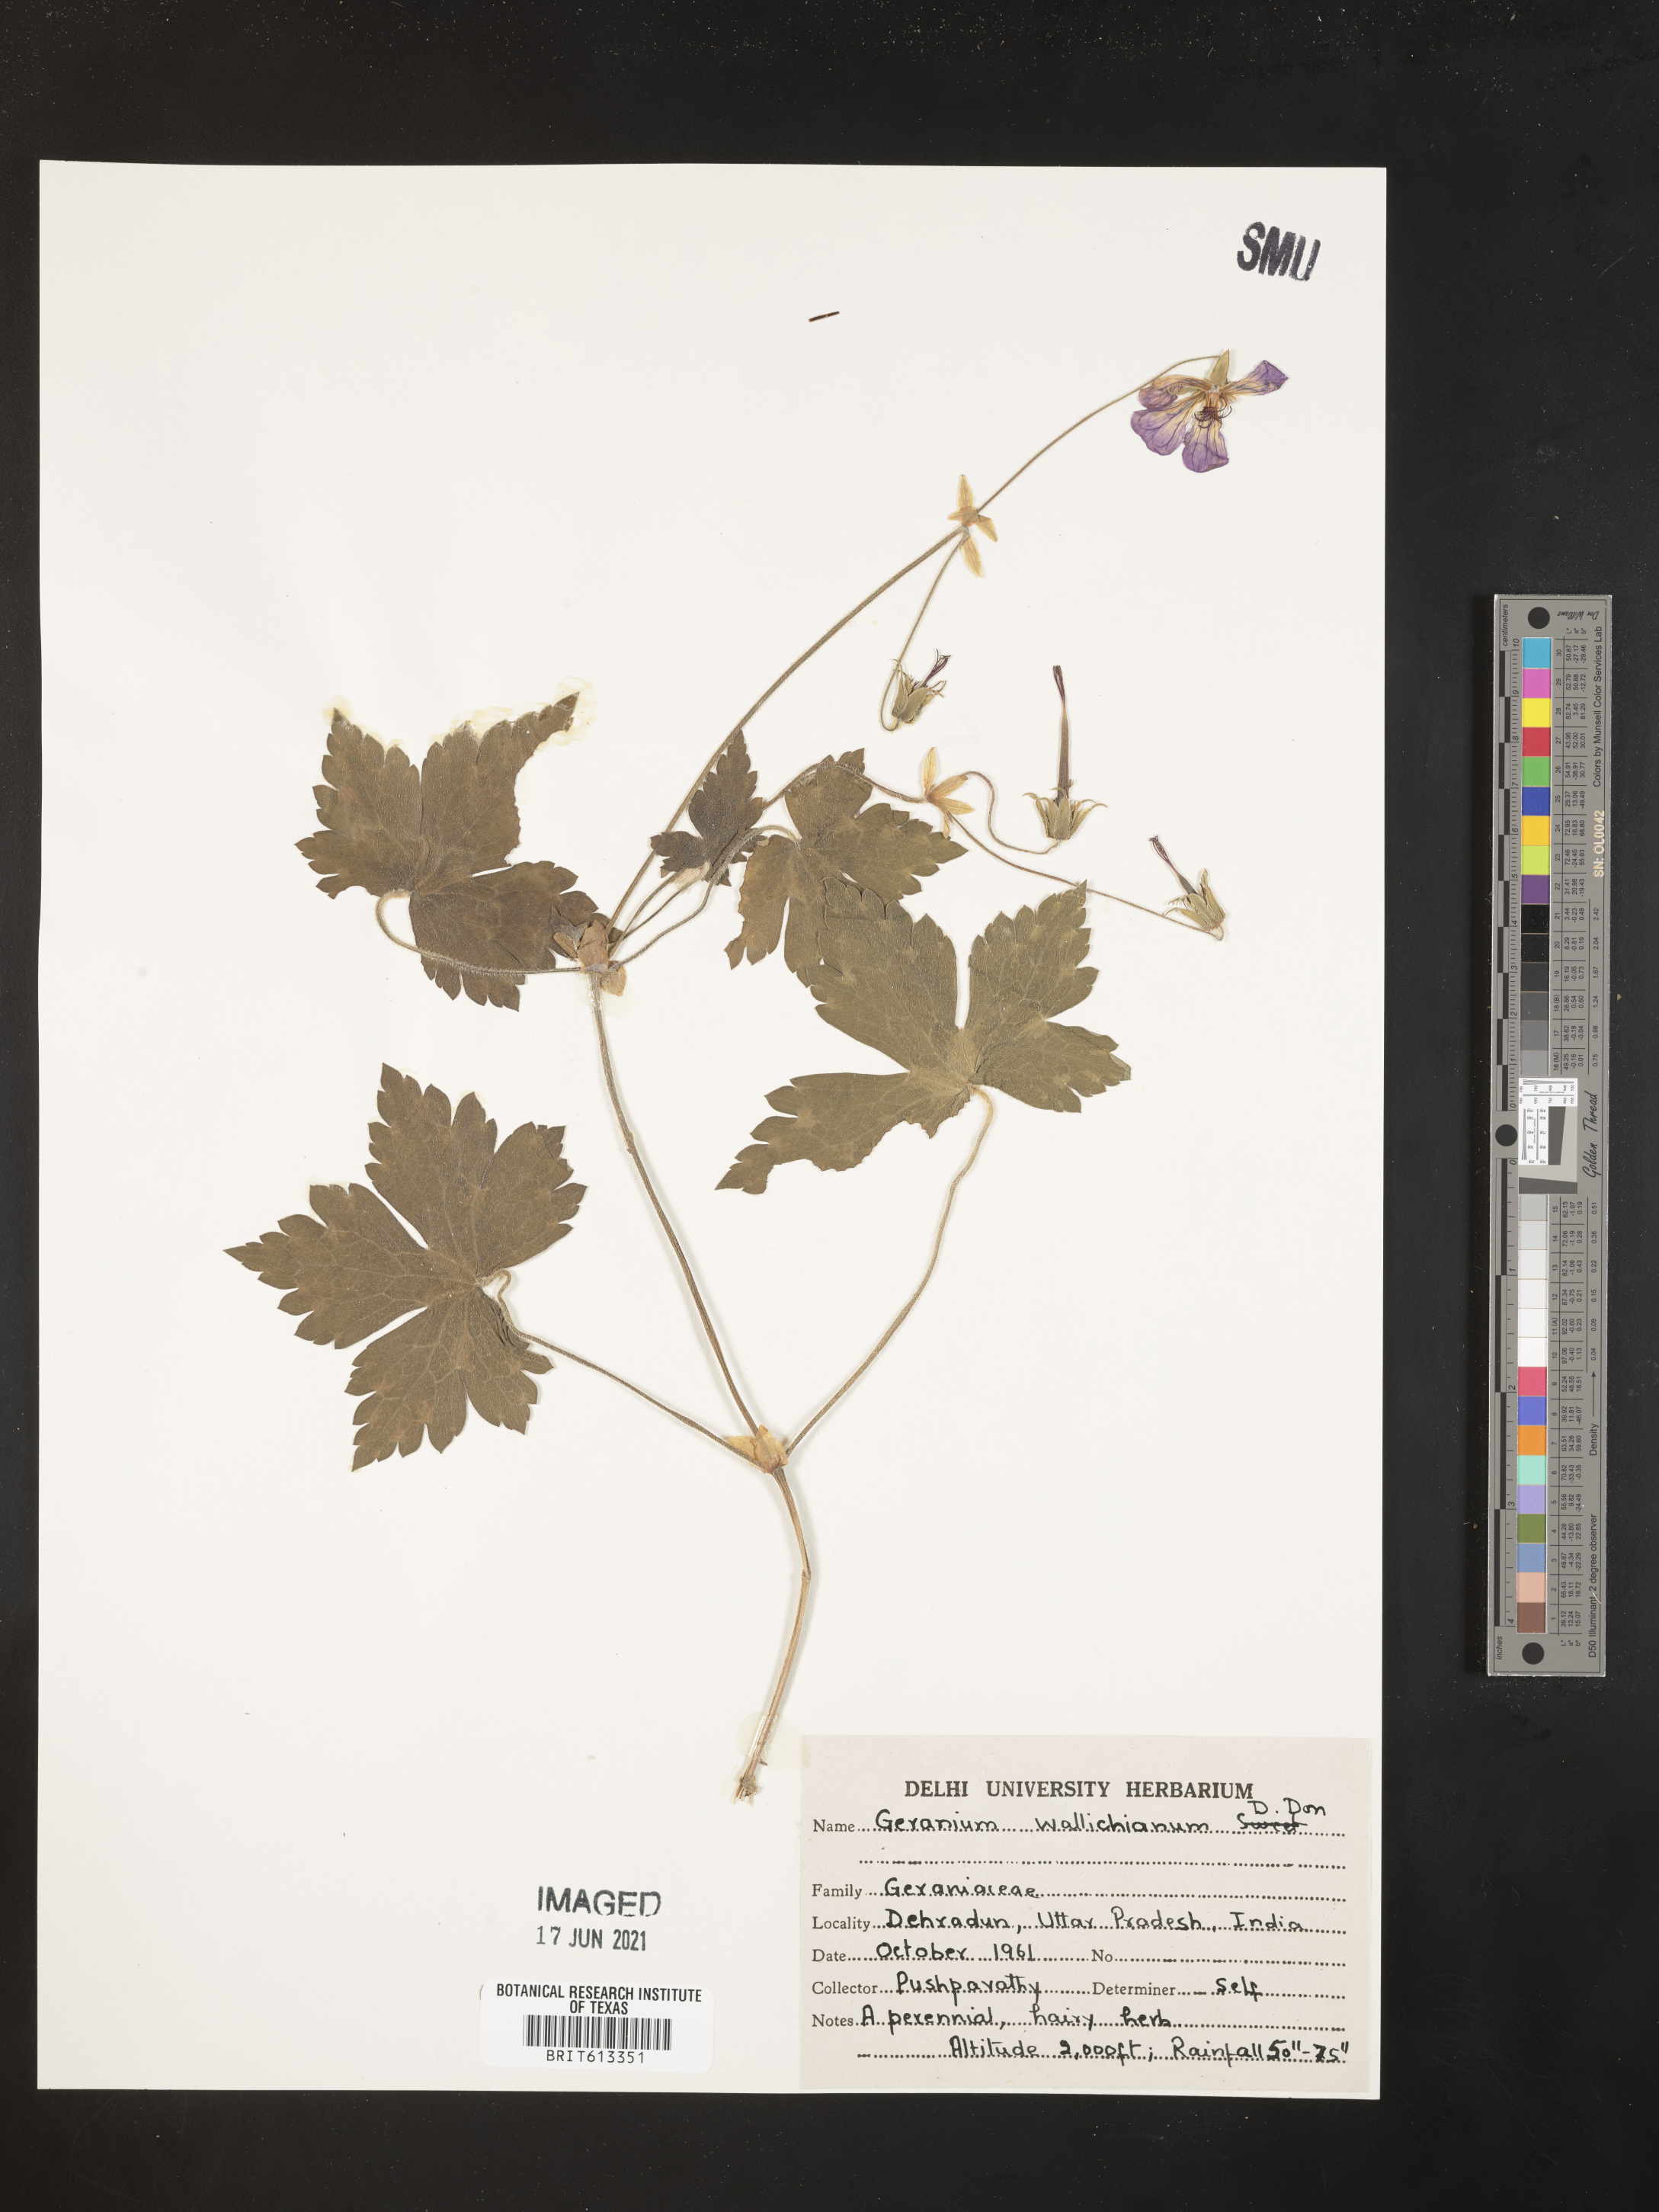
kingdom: Plantae
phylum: Tracheophyta
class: Magnoliopsida
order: Geraniales
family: Geraniaceae
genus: Geranium
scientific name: Geranium wallichianum
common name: Buxton's blue
